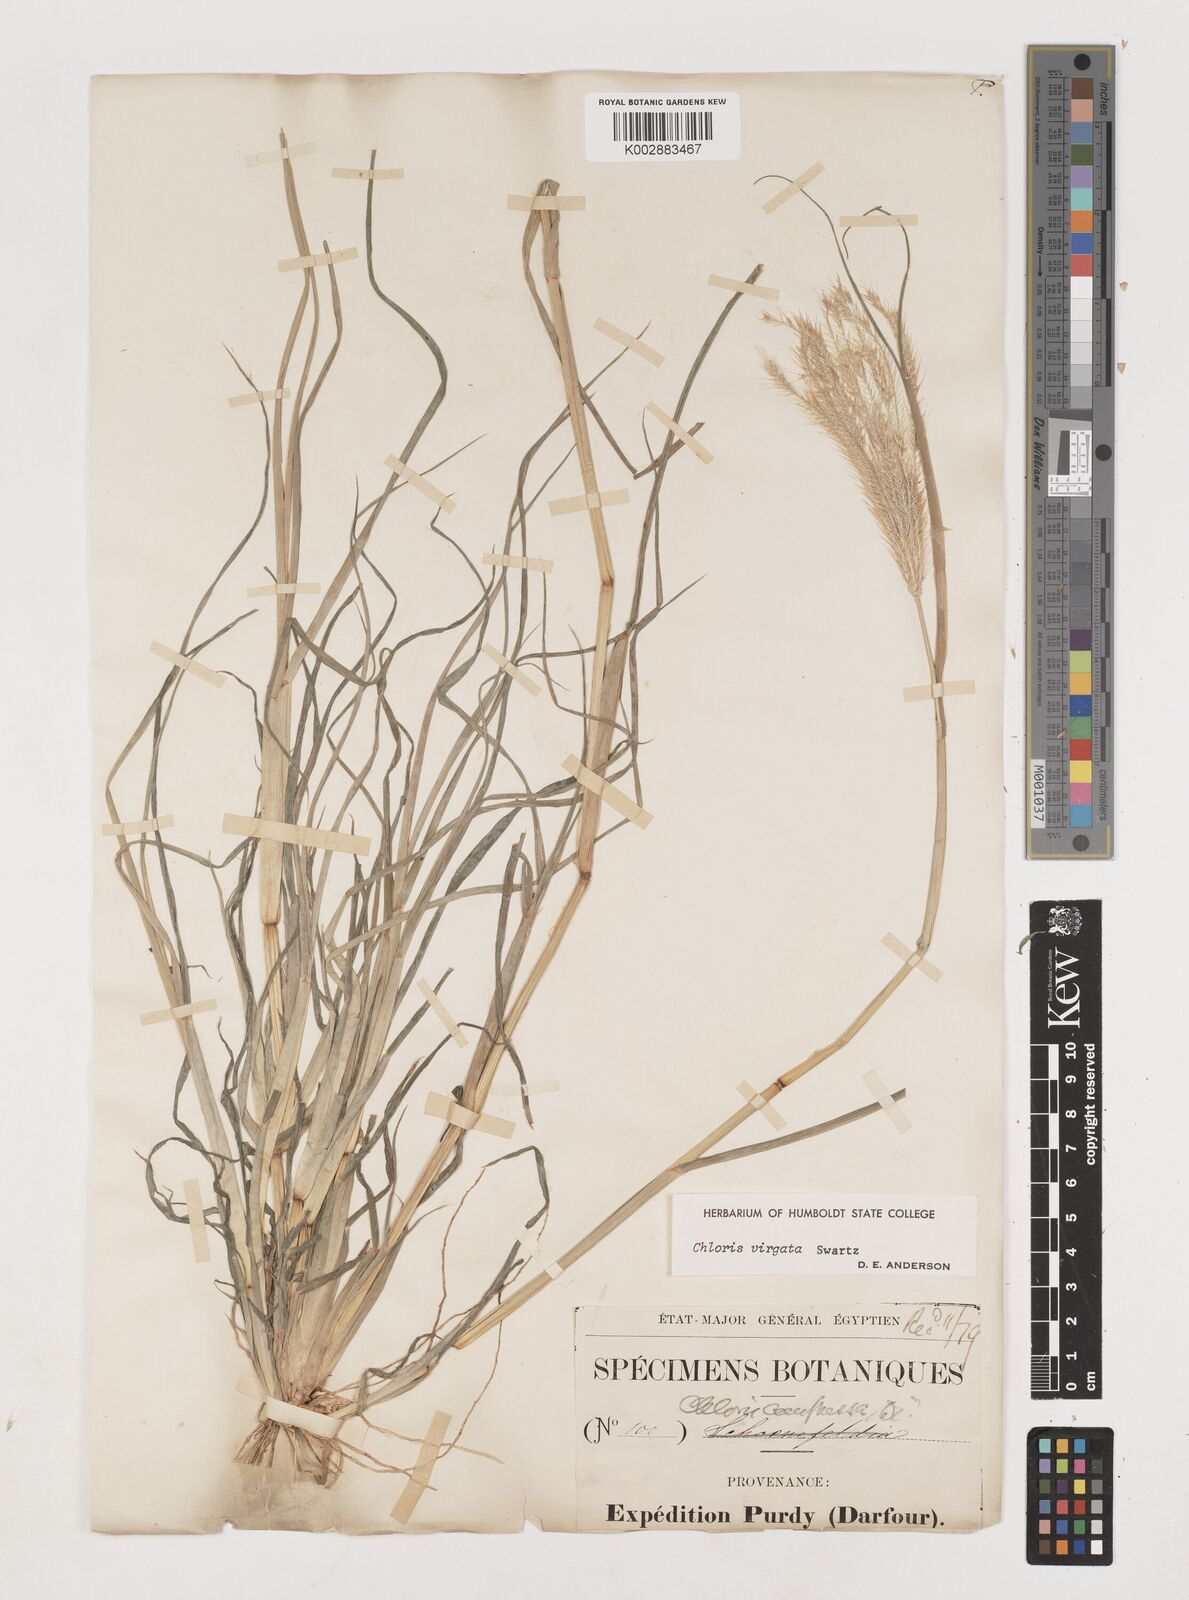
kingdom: Plantae
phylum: Tracheophyta
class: Liliopsida
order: Poales
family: Poaceae
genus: Chloris
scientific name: Chloris virgata
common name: Feathery rhodes-grass
